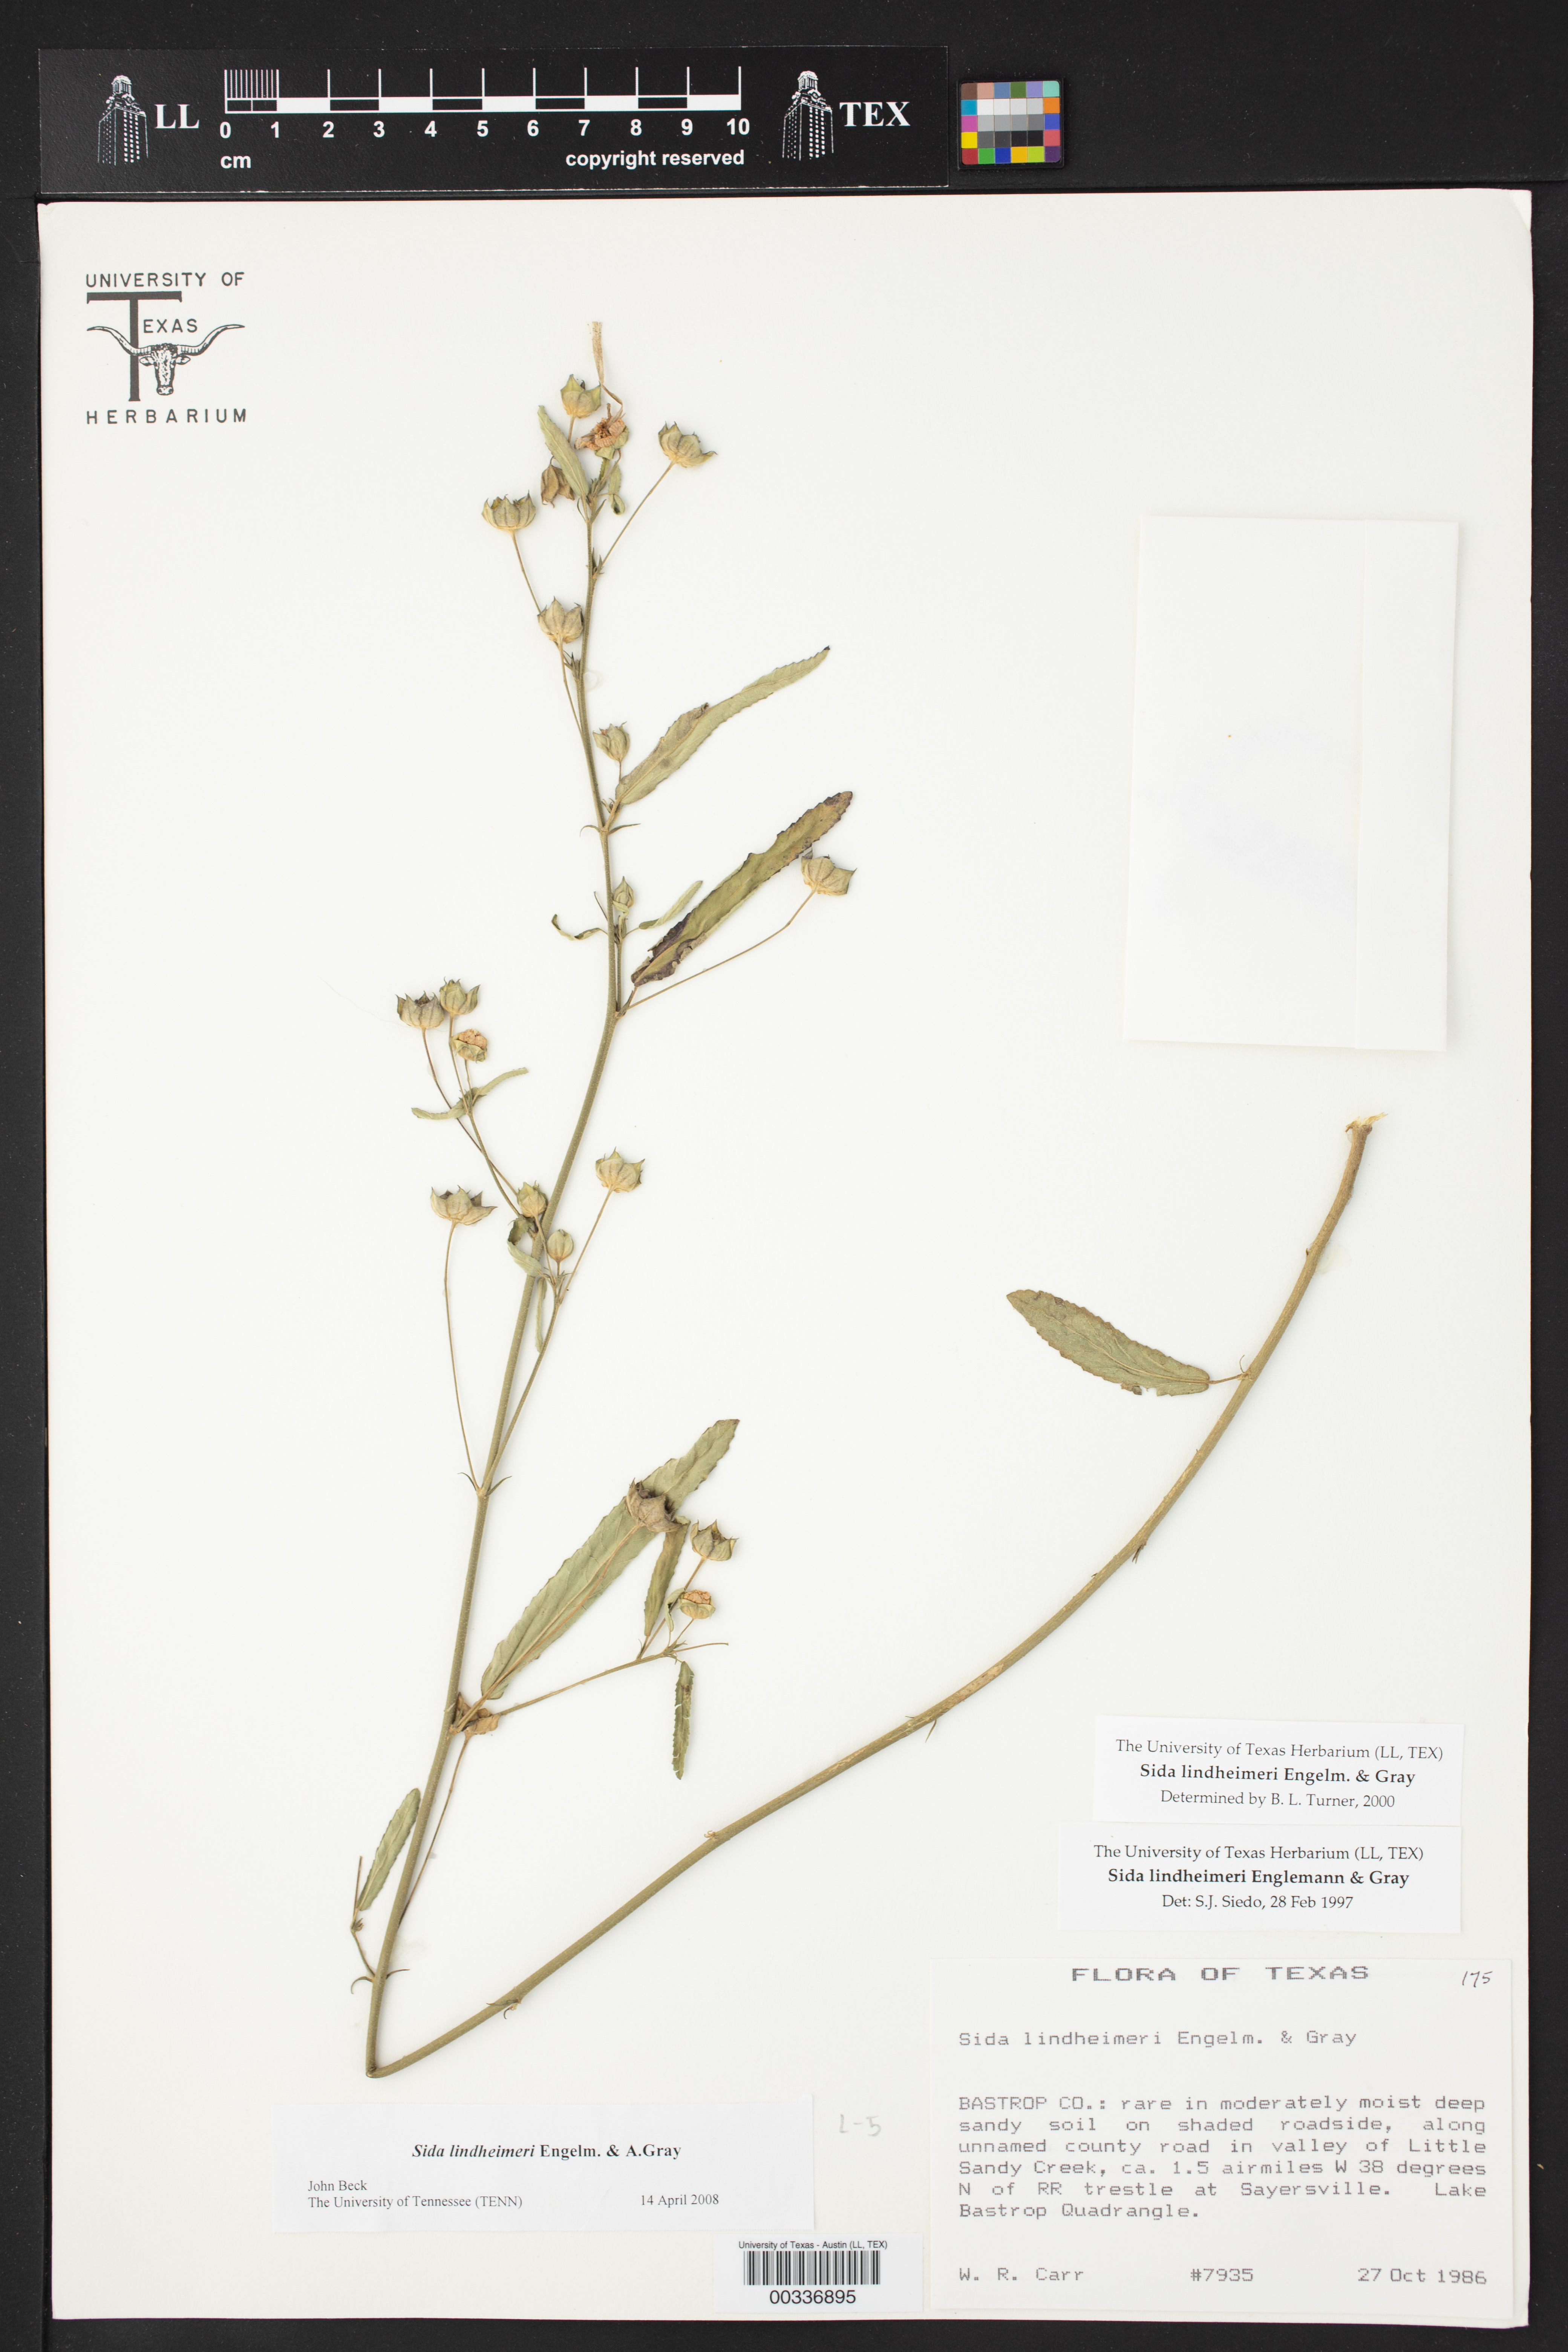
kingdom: Plantae
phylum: Tracheophyta
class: Magnoliopsida
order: Malvales
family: Malvaceae
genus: Sida
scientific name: Sida lindheimeri
